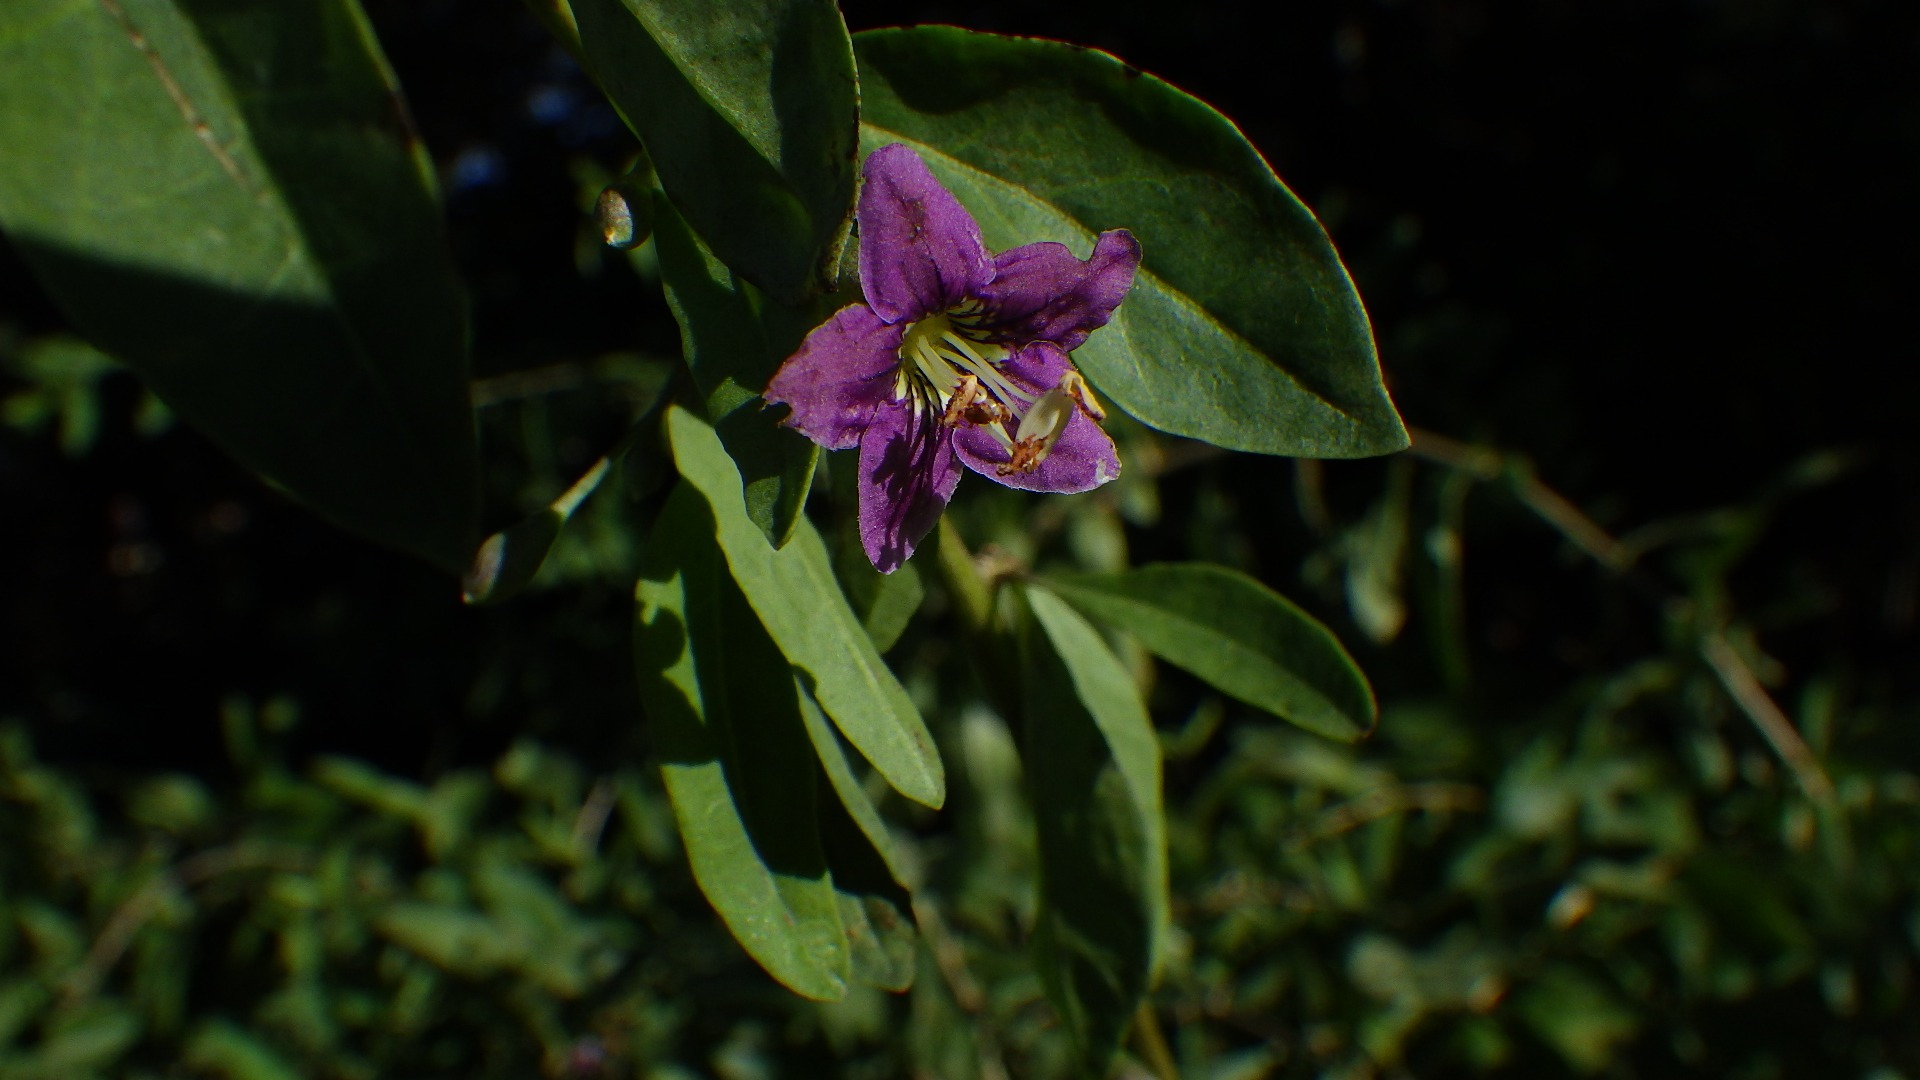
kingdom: Plantae
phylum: Tracheophyta
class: Magnoliopsida
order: Solanales
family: Solanaceae
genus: Lycium
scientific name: Lycium barbarum
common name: Bukketorn
